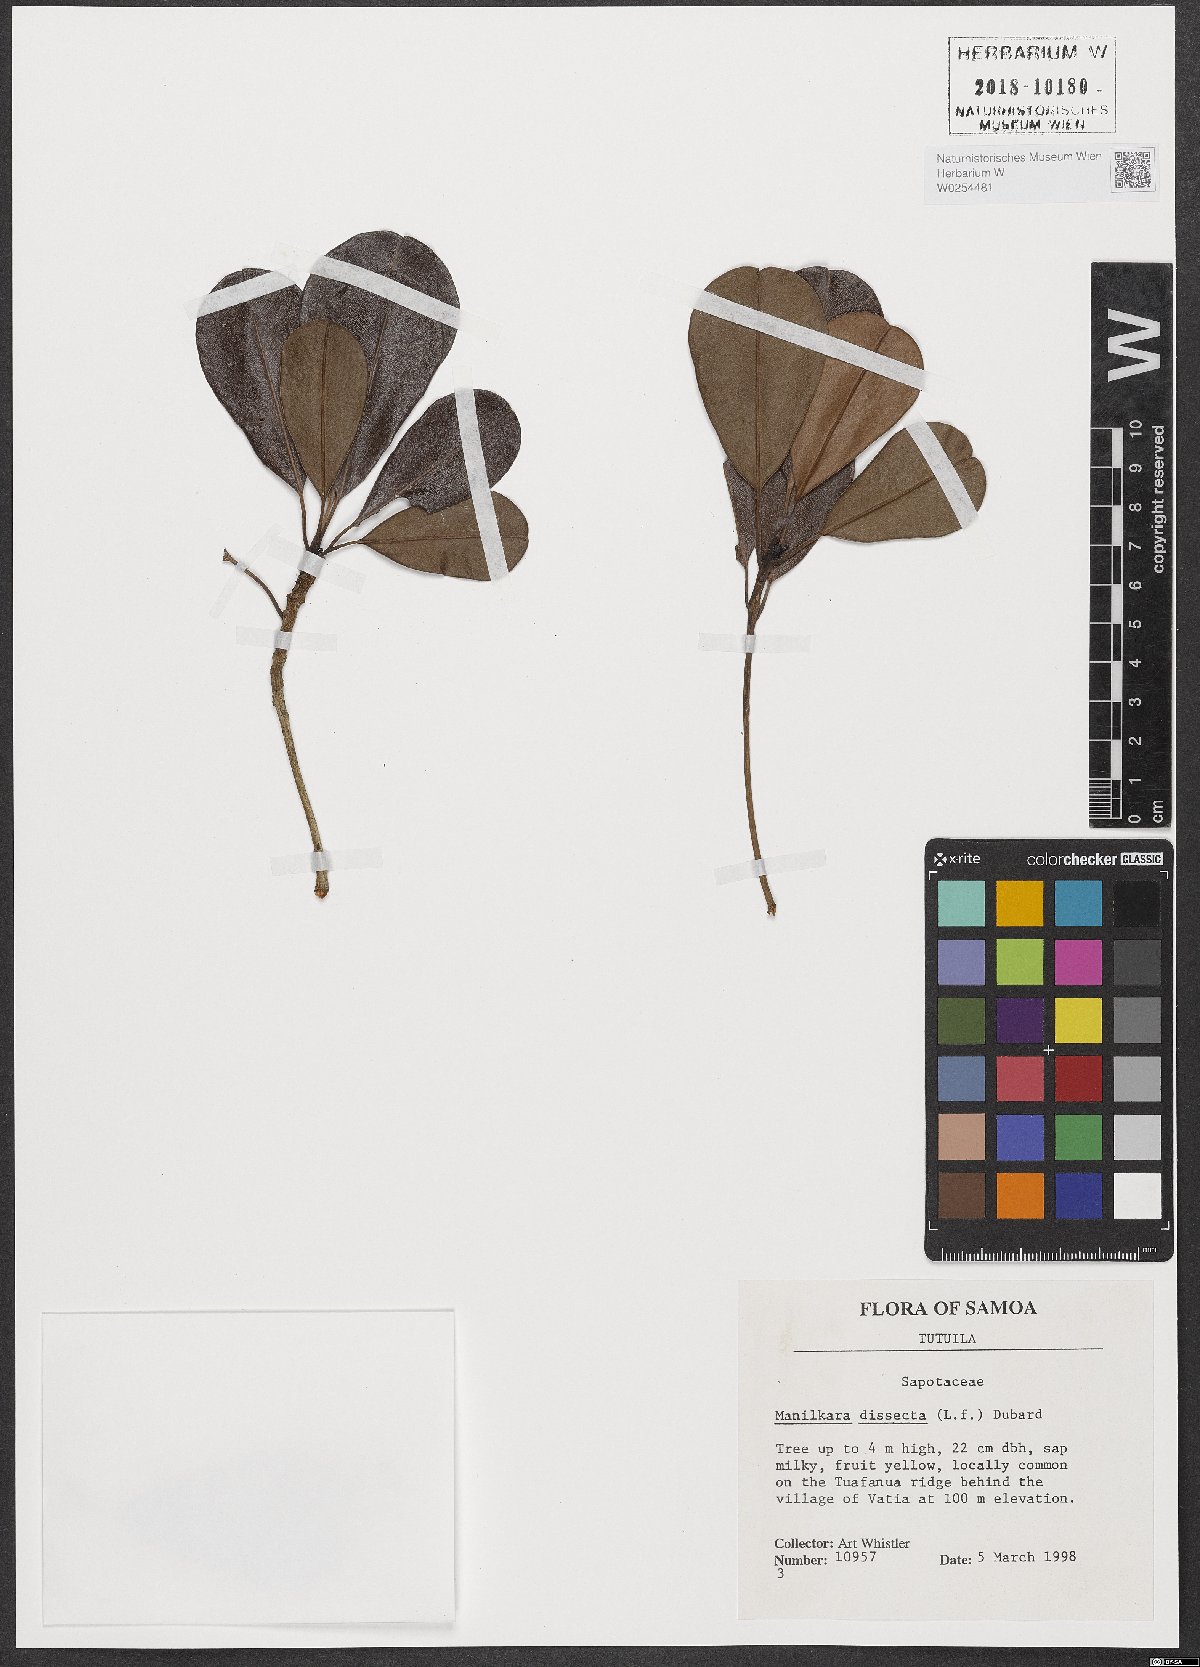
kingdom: Plantae
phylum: Tracheophyta
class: Magnoliopsida
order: Ericales
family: Sapotaceae
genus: Manilkara
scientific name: Manilkara dissecta
